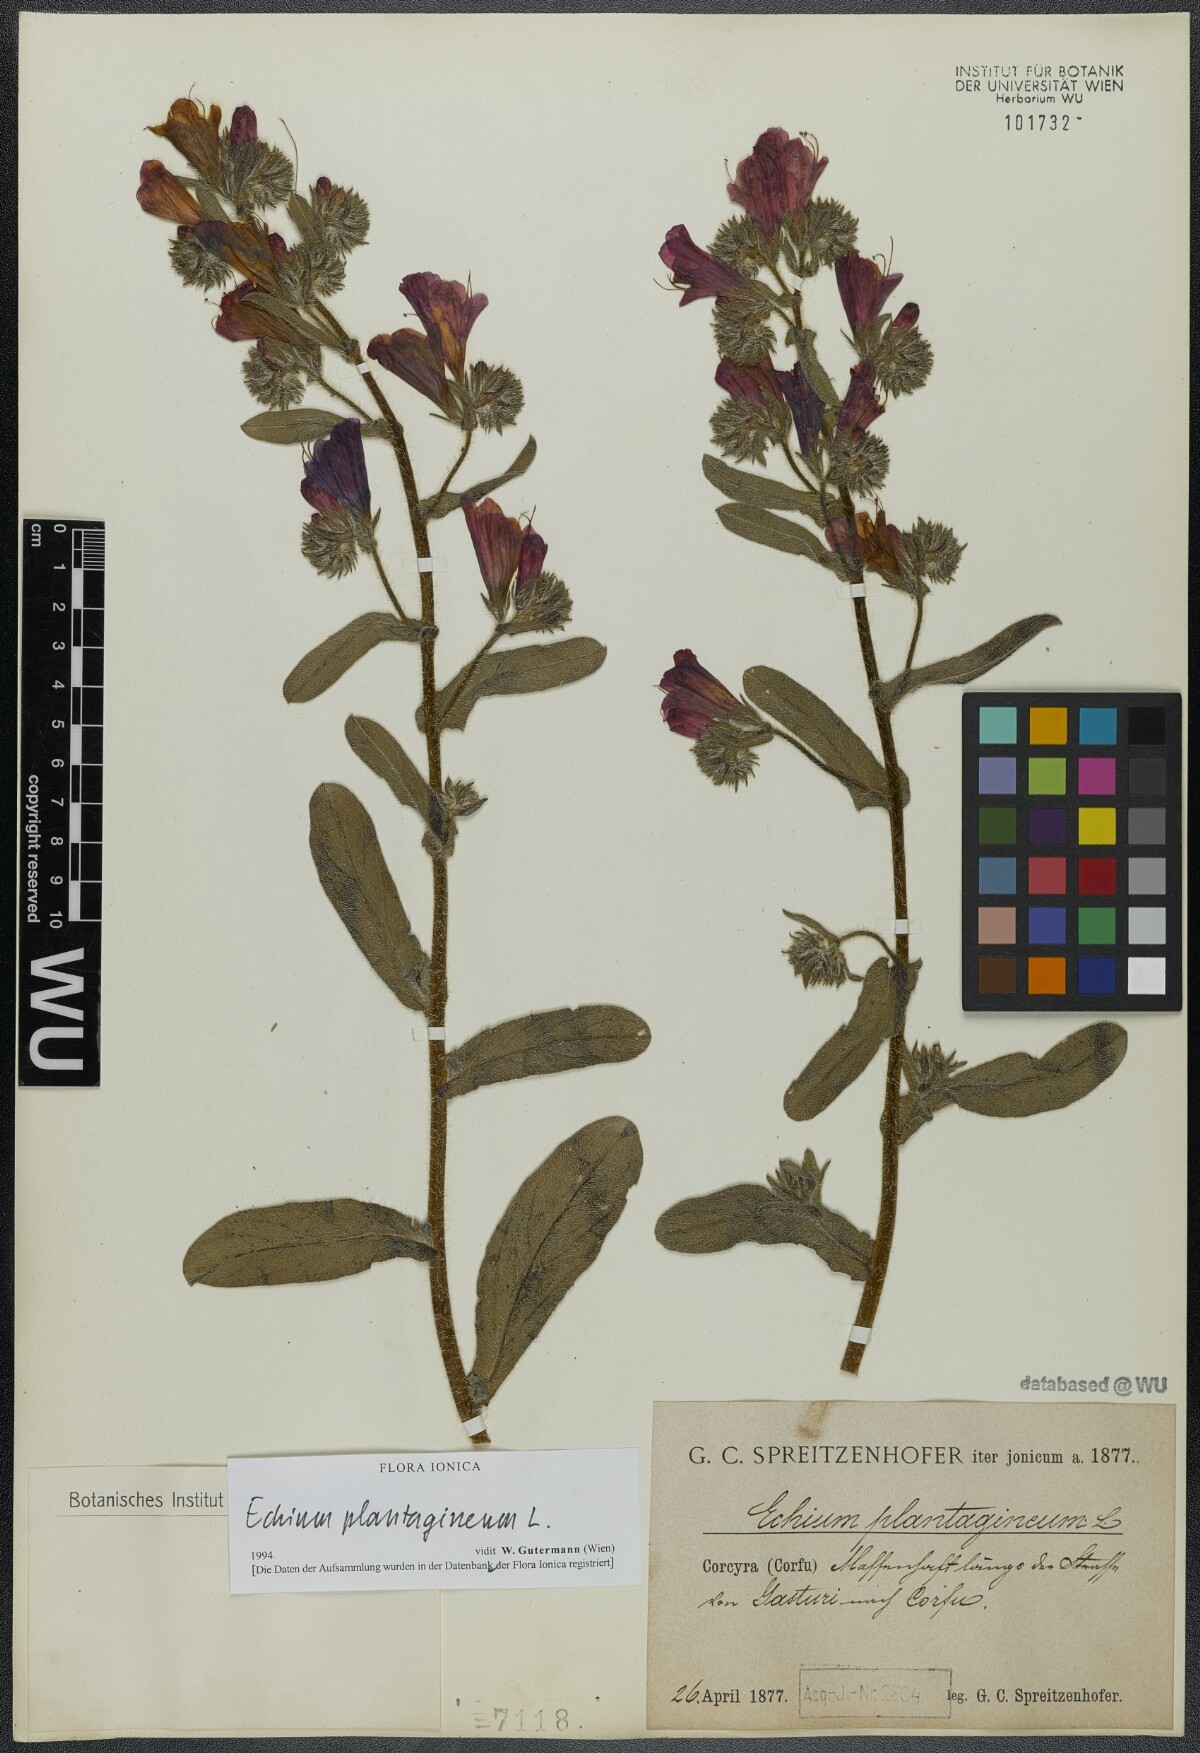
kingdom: Plantae
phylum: Tracheophyta
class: Magnoliopsida
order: Boraginales
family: Boraginaceae
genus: Echium
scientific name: Echium plantagineum
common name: Purple viper's-bugloss
